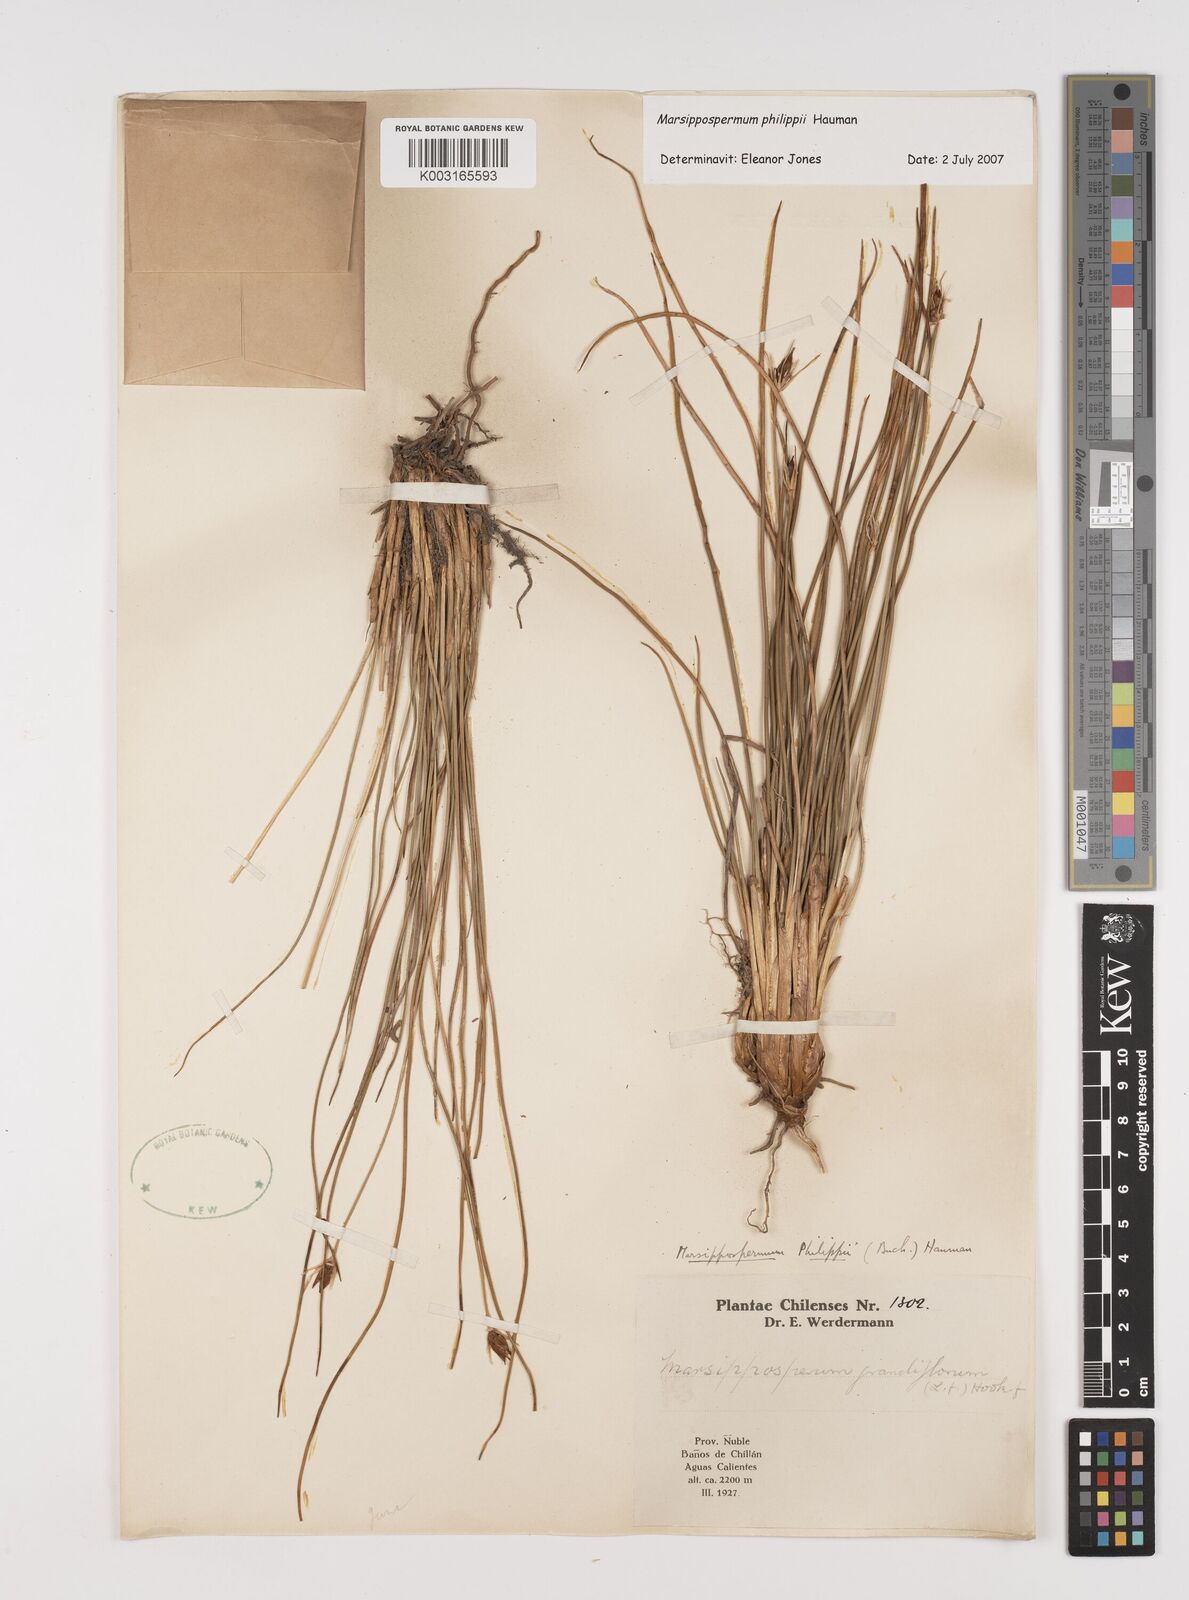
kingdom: Plantae
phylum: Tracheophyta
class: Liliopsida
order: Poales
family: Juncaceae
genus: Marsippospermum
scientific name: Marsippospermum philippii
